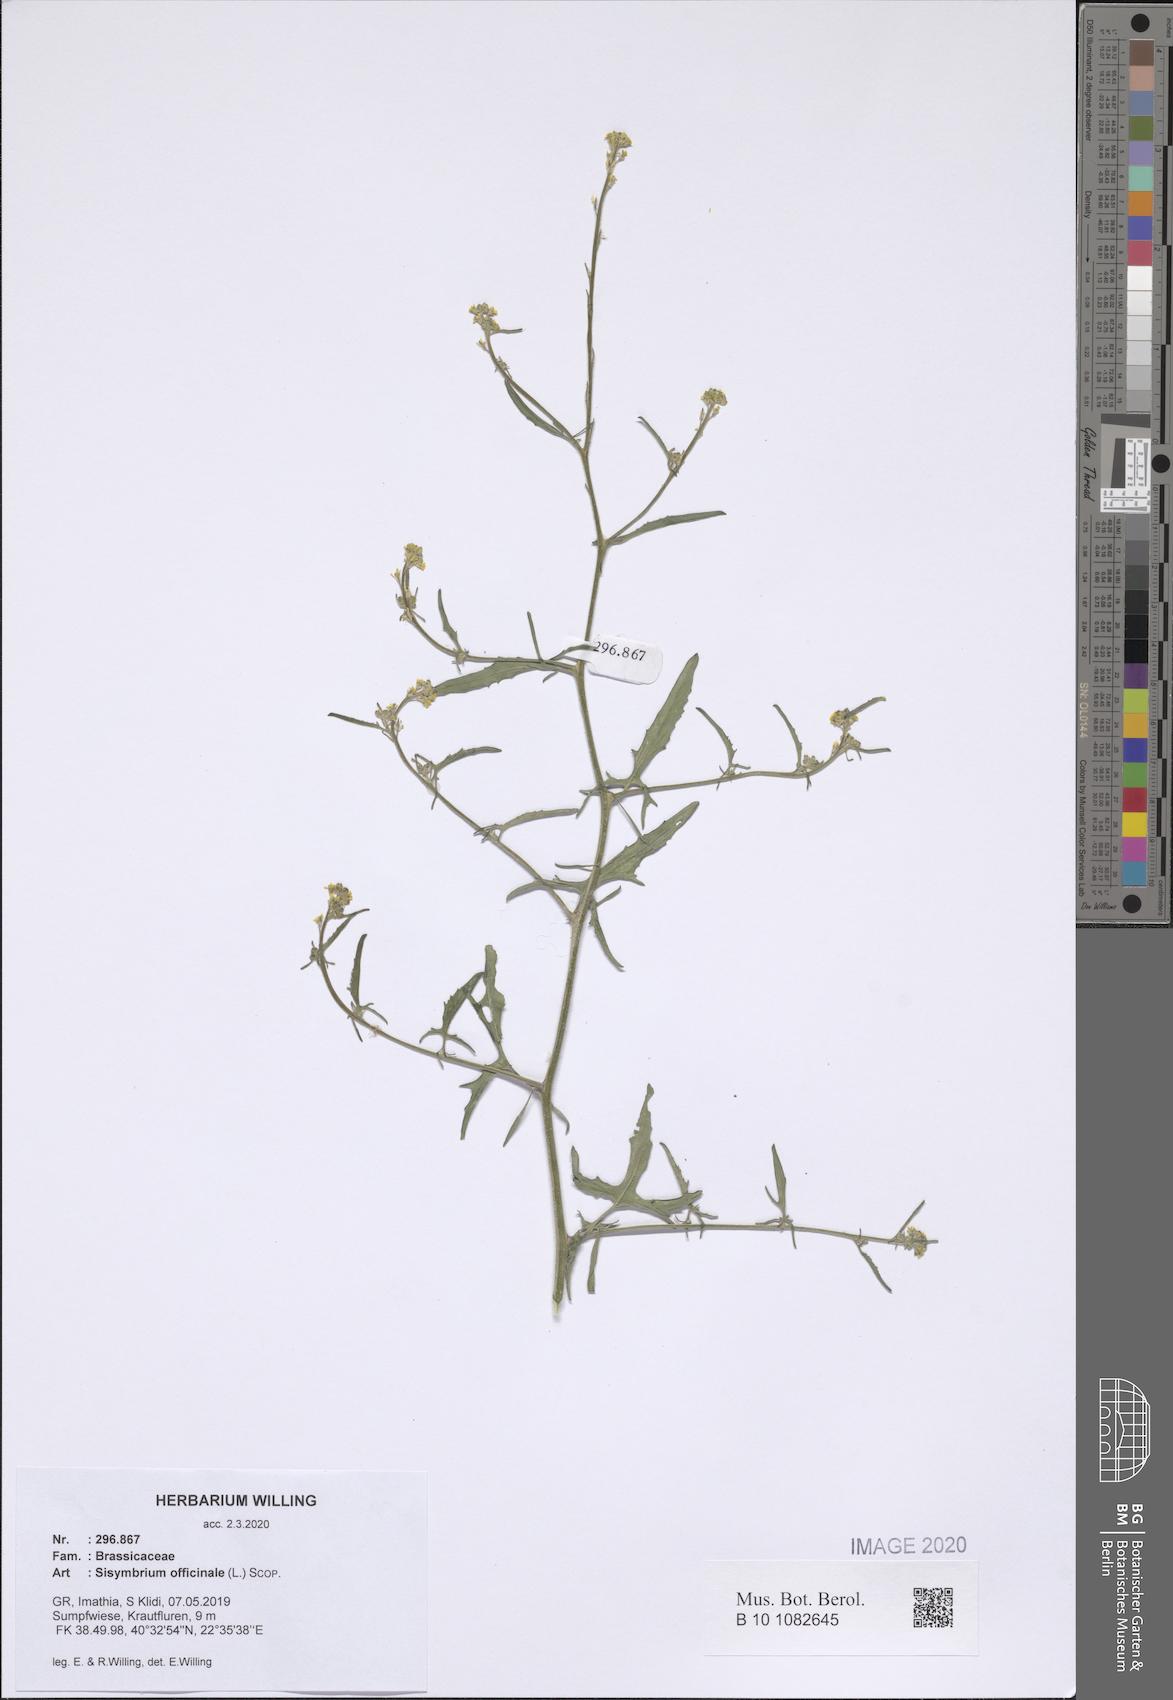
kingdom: Plantae
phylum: Tracheophyta
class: Magnoliopsida
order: Brassicales
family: Brassicaceae
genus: Sisymbrium
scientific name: Sisymbrium officinale
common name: Hedge mustard
